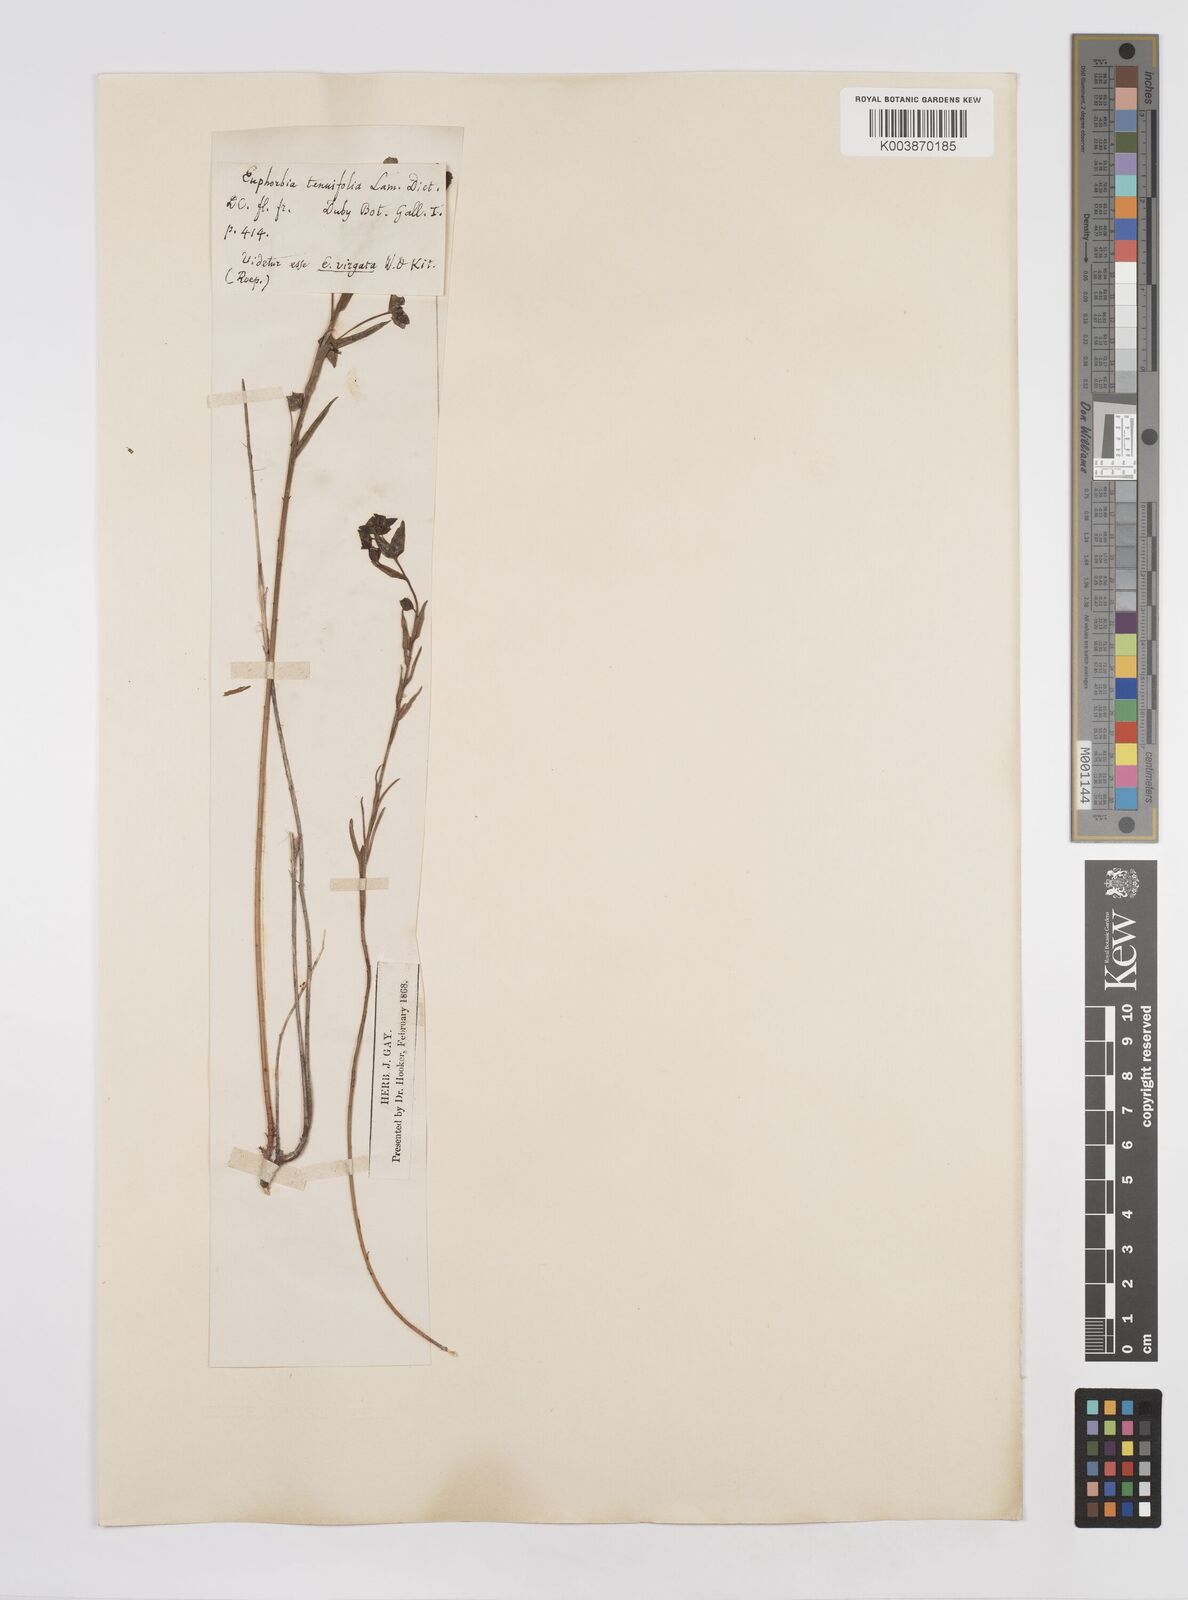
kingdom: Plantae
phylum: Tracheophyta
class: Magnoliopsida
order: Malpighiales
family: Euphorbiaceae
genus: Euphorbia
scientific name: Euphorbia
